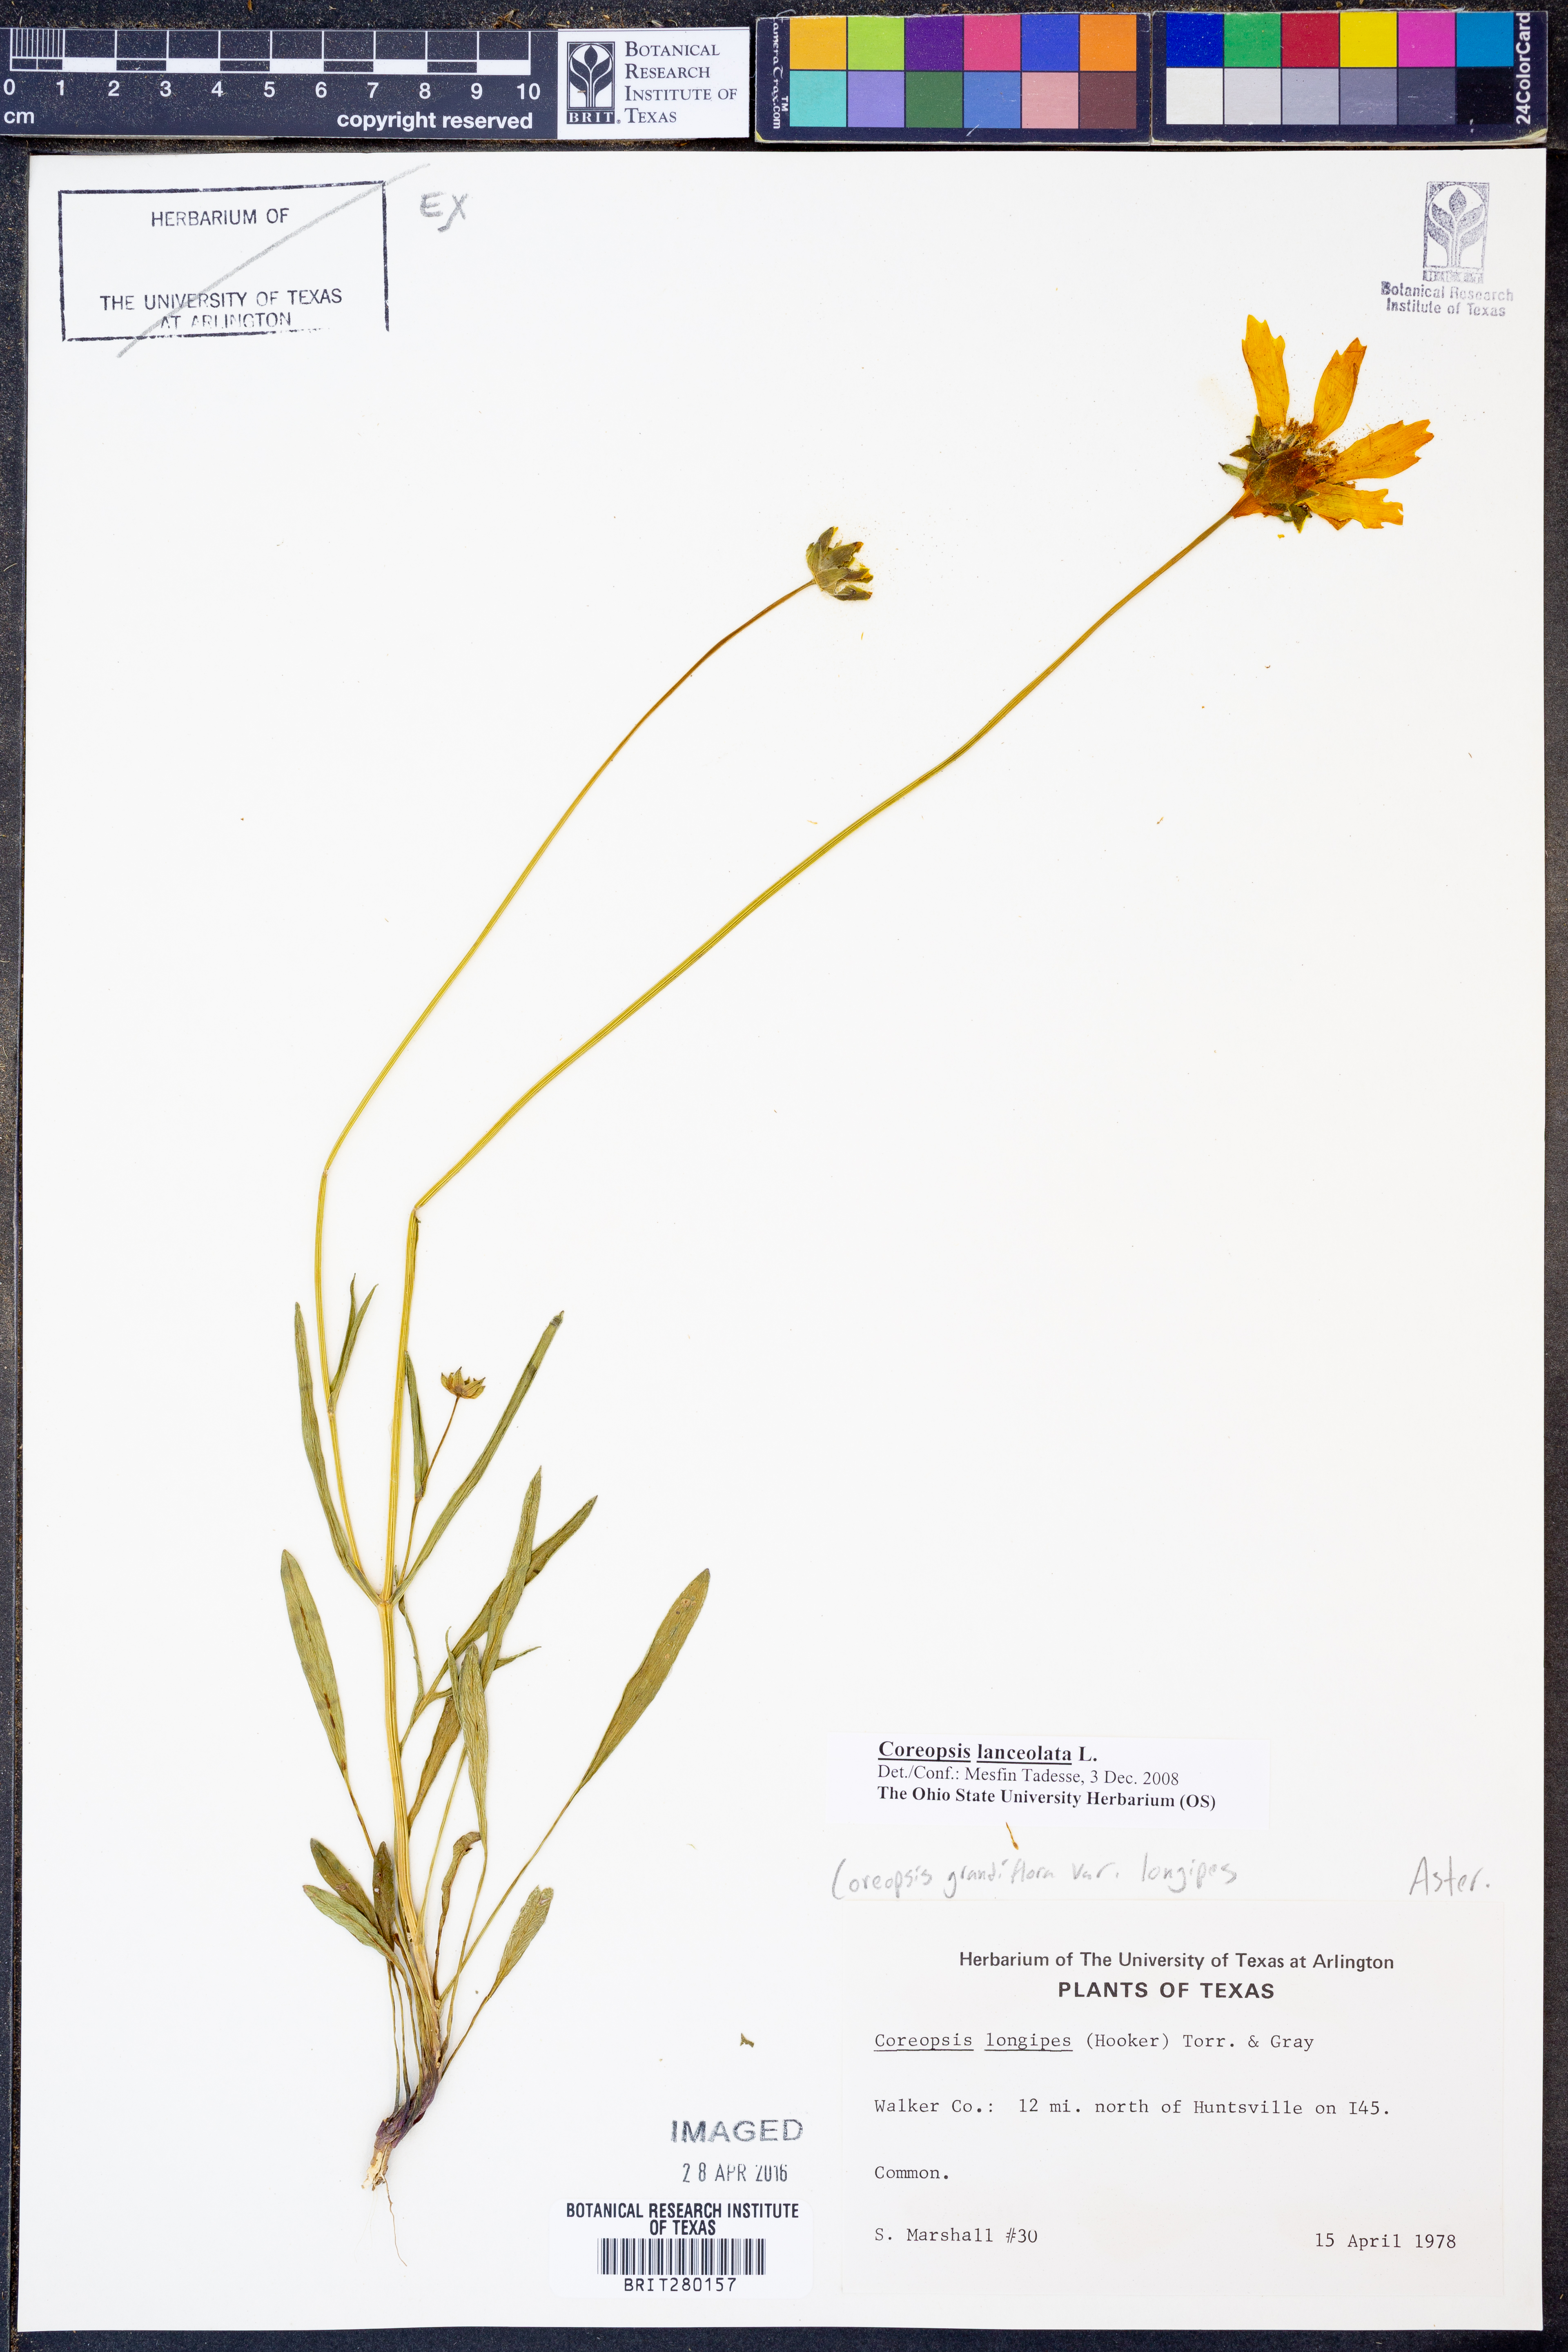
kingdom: Plantae
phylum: Tracheophyta
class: Magnoliopsida
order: Asterales
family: Asteraceae
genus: Coreopsis
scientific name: Coreopsis lanceolata
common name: Garden coreopsis
